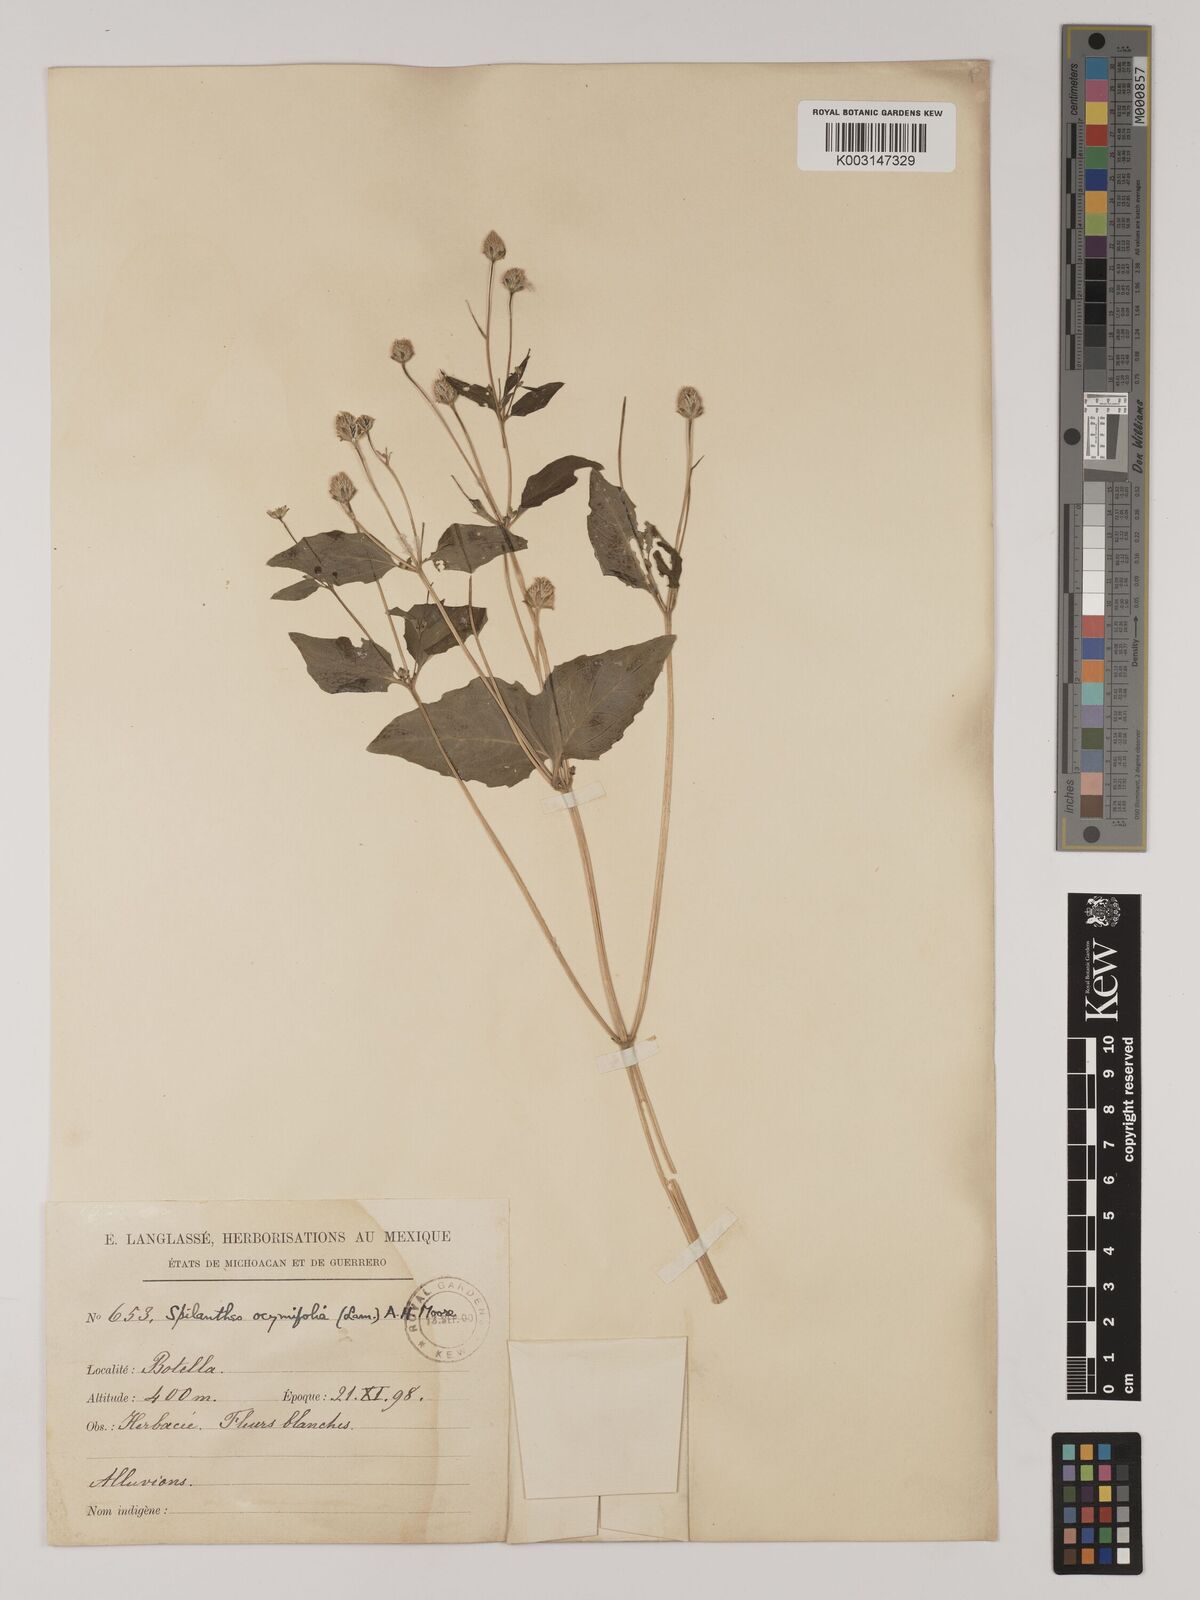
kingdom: Plantae
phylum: Tracheophyta
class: Magnoliopsida
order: Asterales
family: Asteraceae
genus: Acmella
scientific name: Acmella radicans
